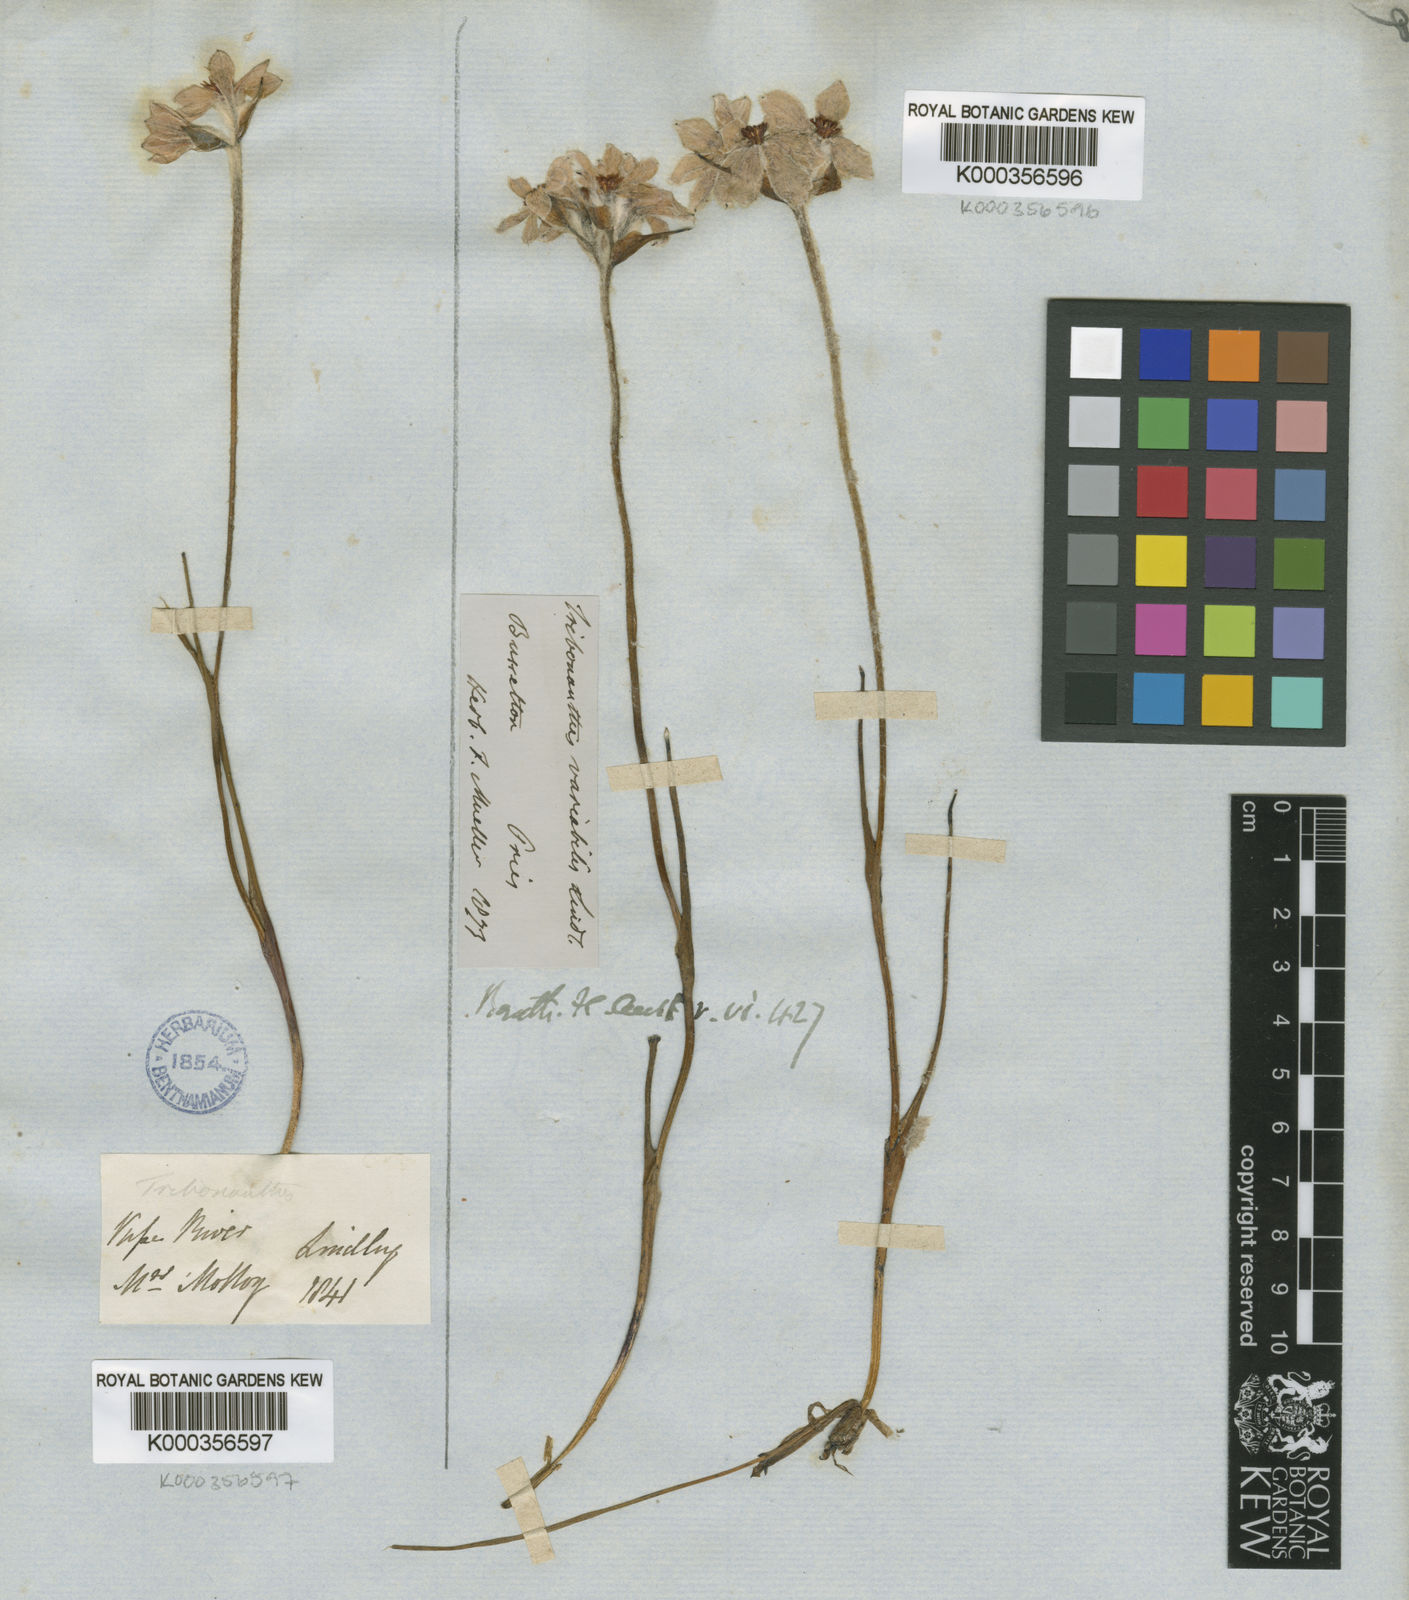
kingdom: Plantae
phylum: Tracheophyta
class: Liliopsida
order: Commelinales
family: Haemodoraceae
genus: Tribonanthes
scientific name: Tribonanthes australis
